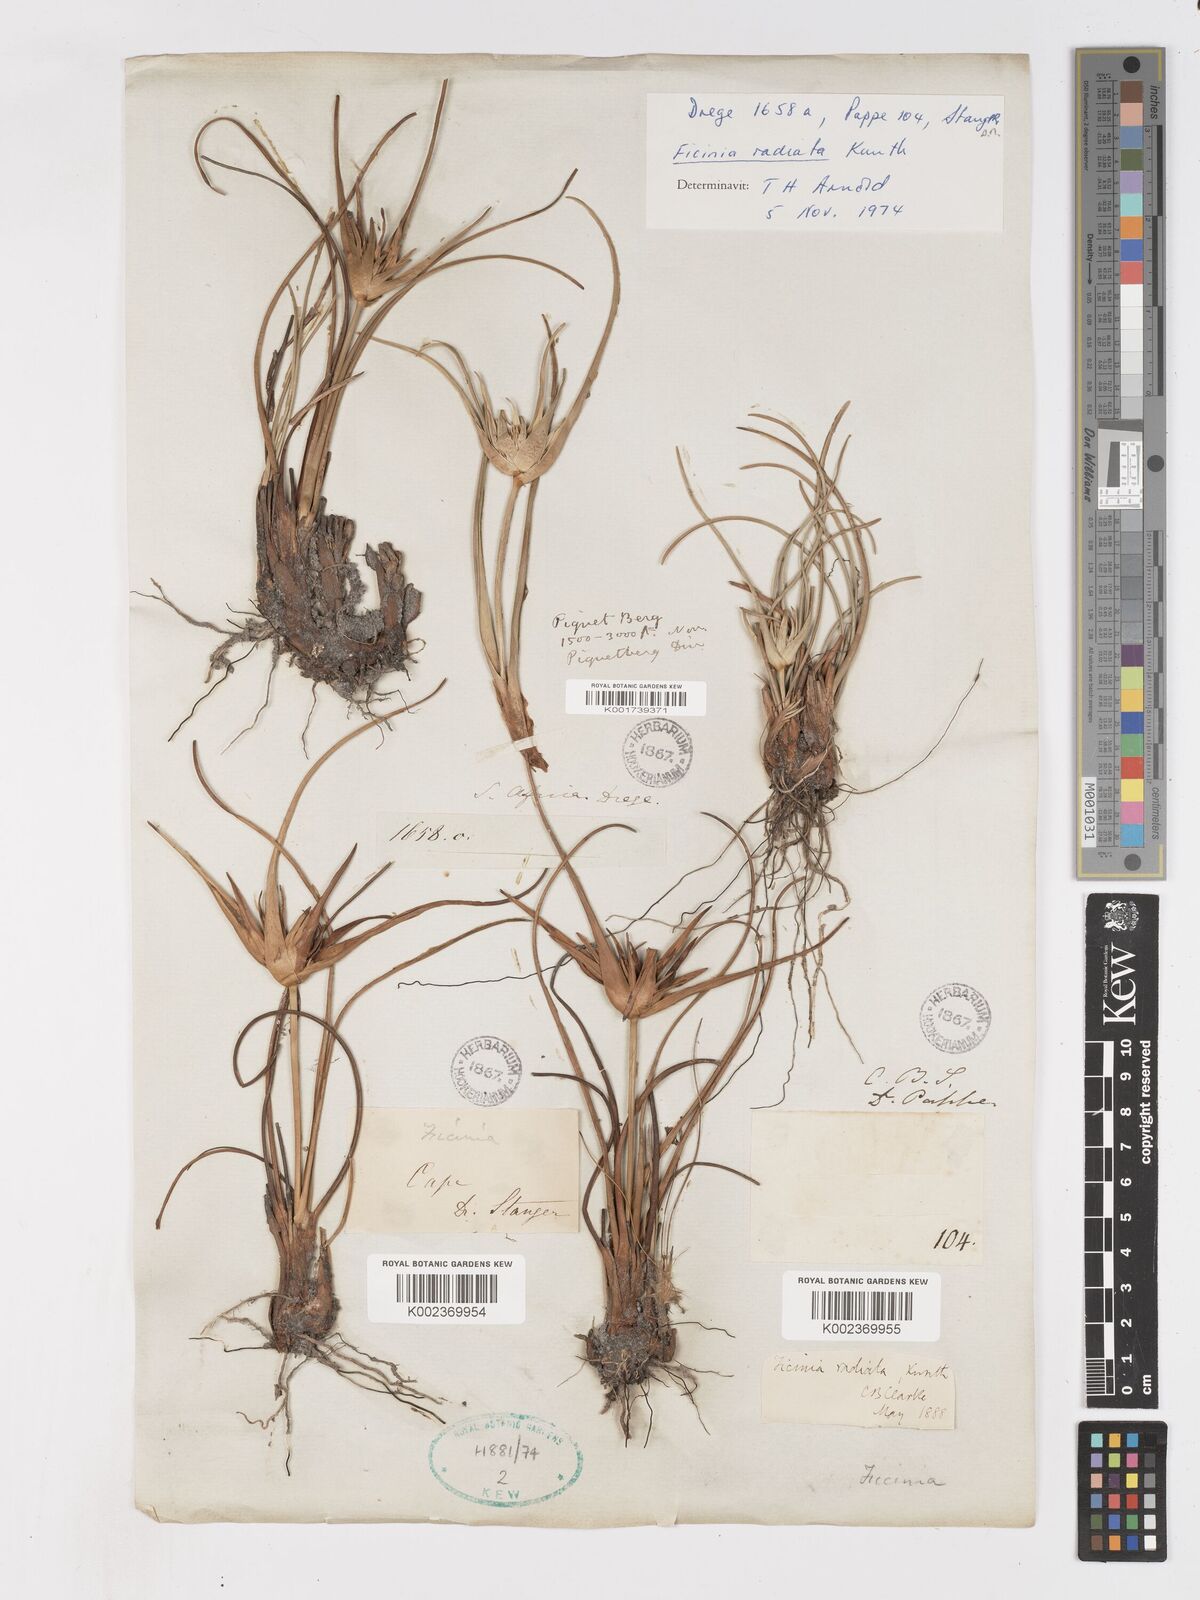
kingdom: Plantae
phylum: Tracheophyta
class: Liliopsida
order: Poales
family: Cyperaceae
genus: Ficinia
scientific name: Ficinia radiata
